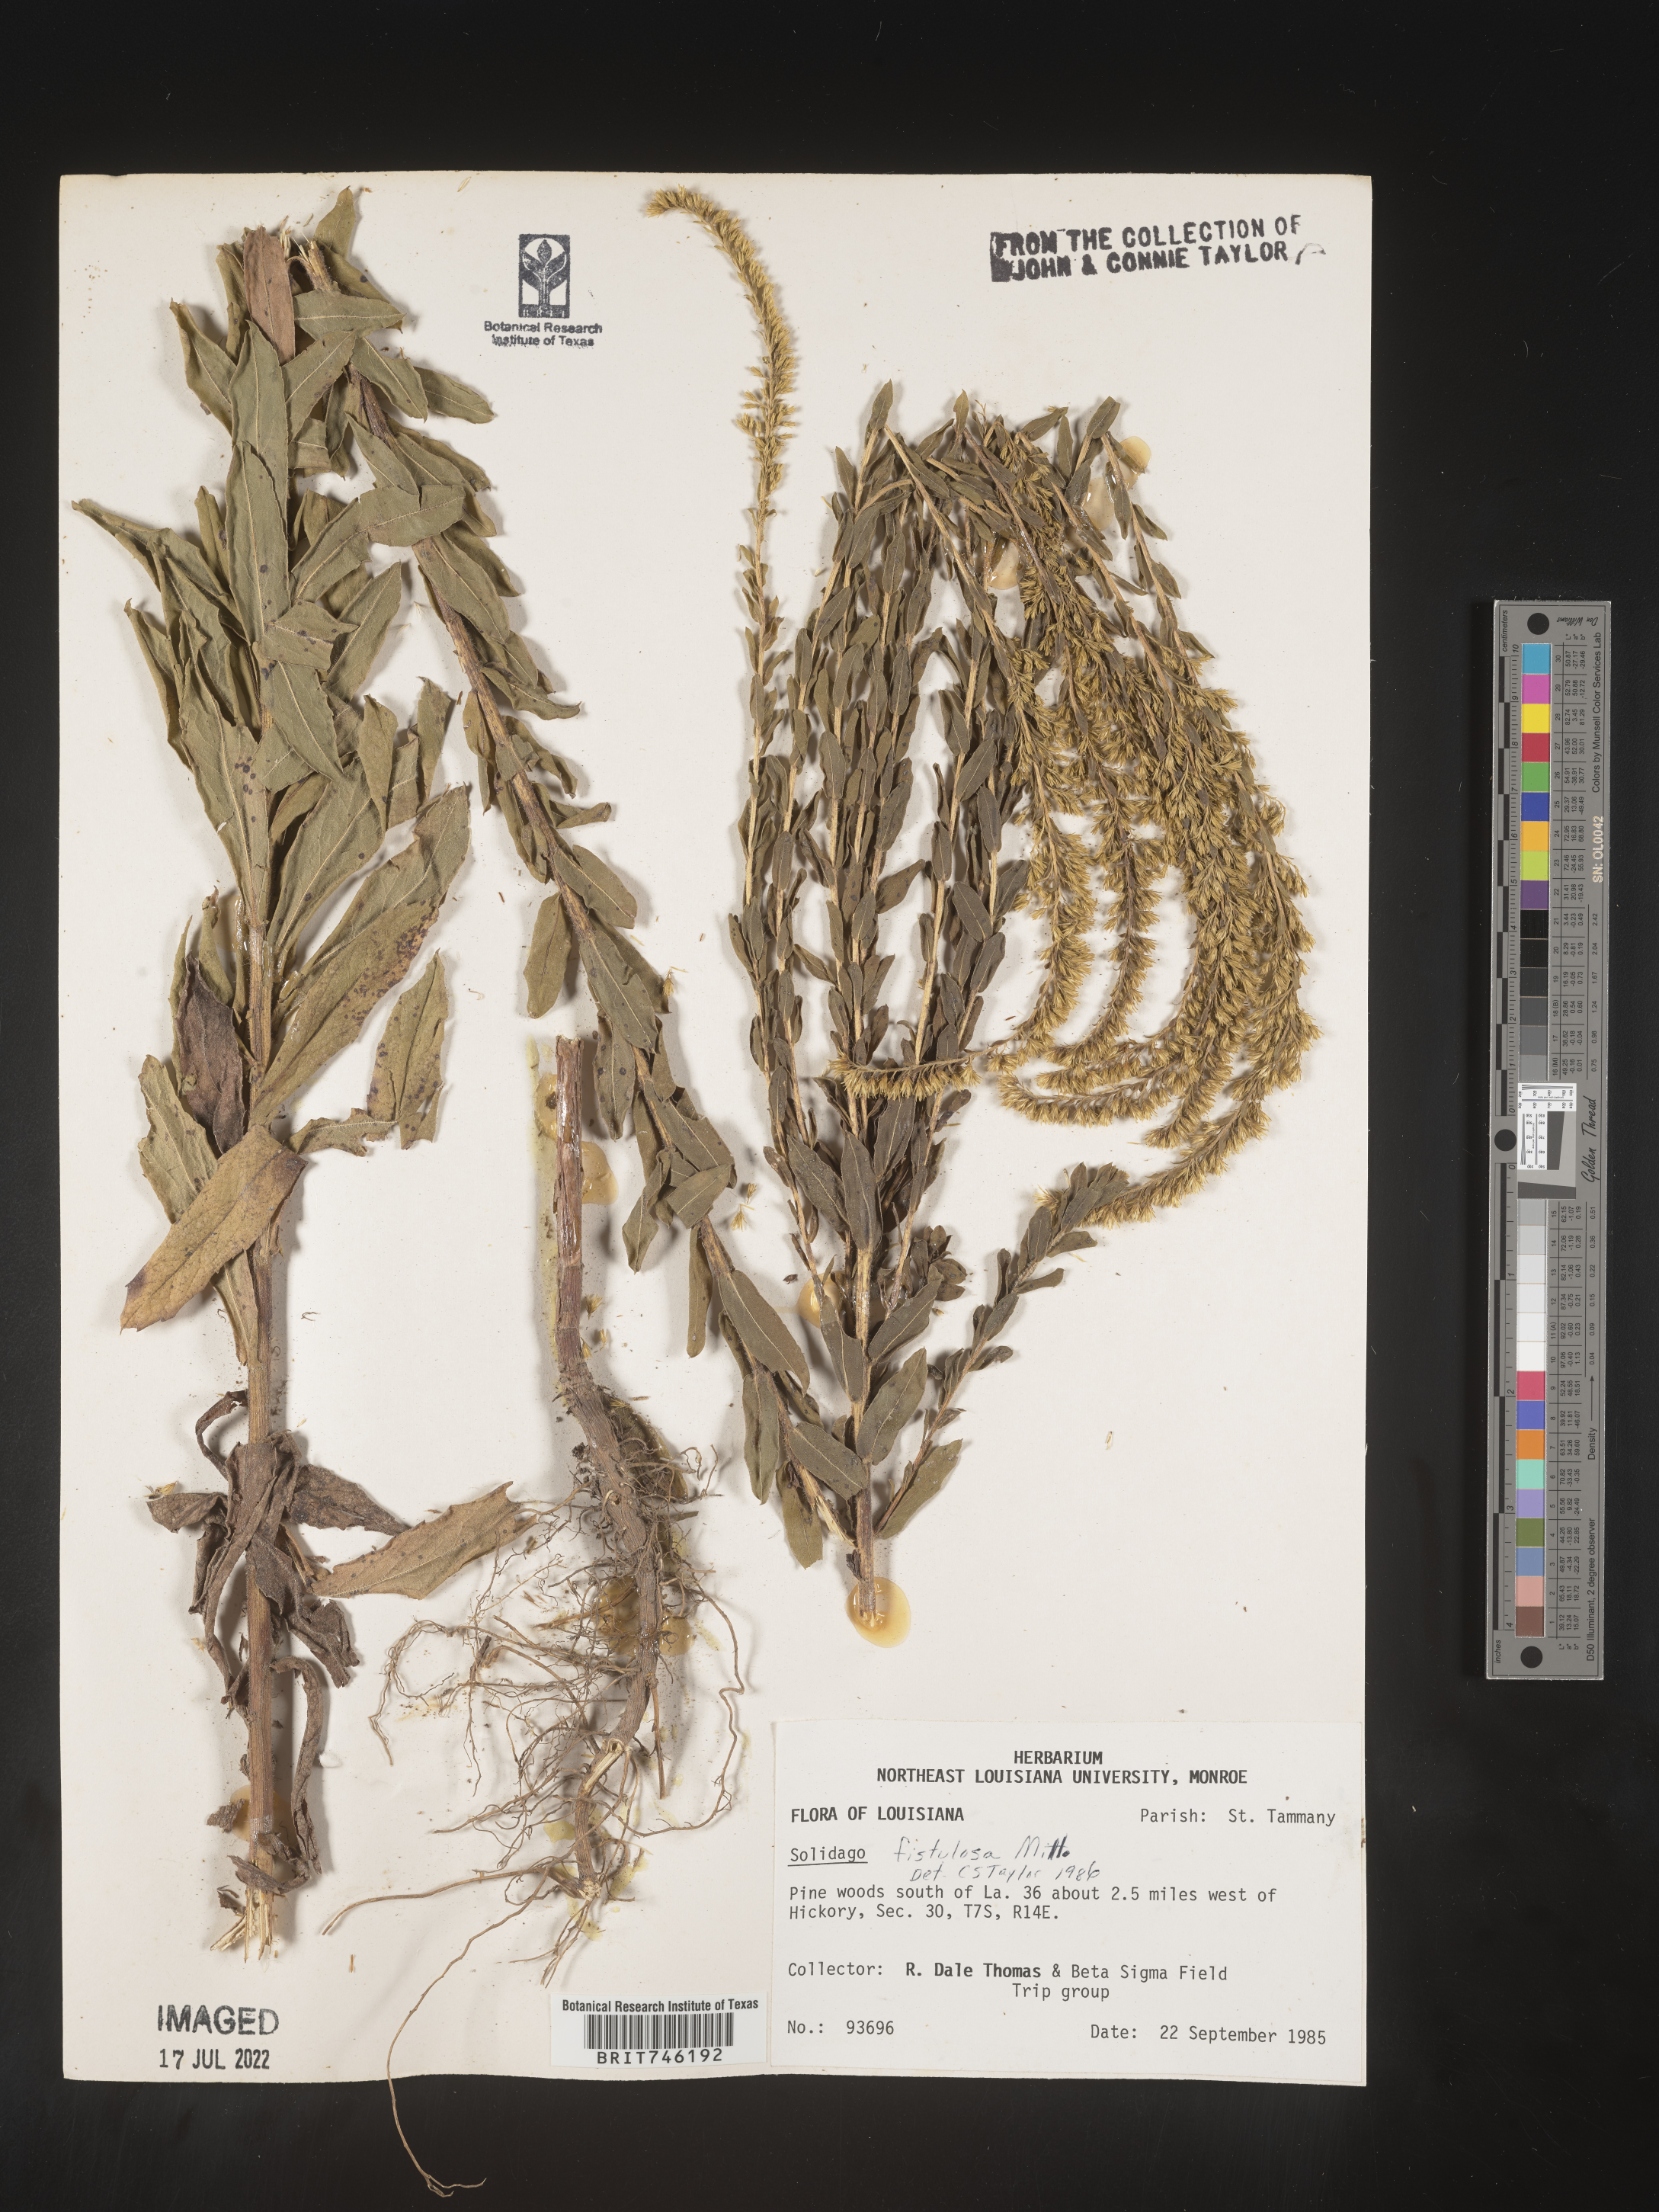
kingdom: Plantae
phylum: Tracheophyta
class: Magnoliopsida
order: Asterales
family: Asteraceae
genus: Solidago
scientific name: Solidago fistulosa
